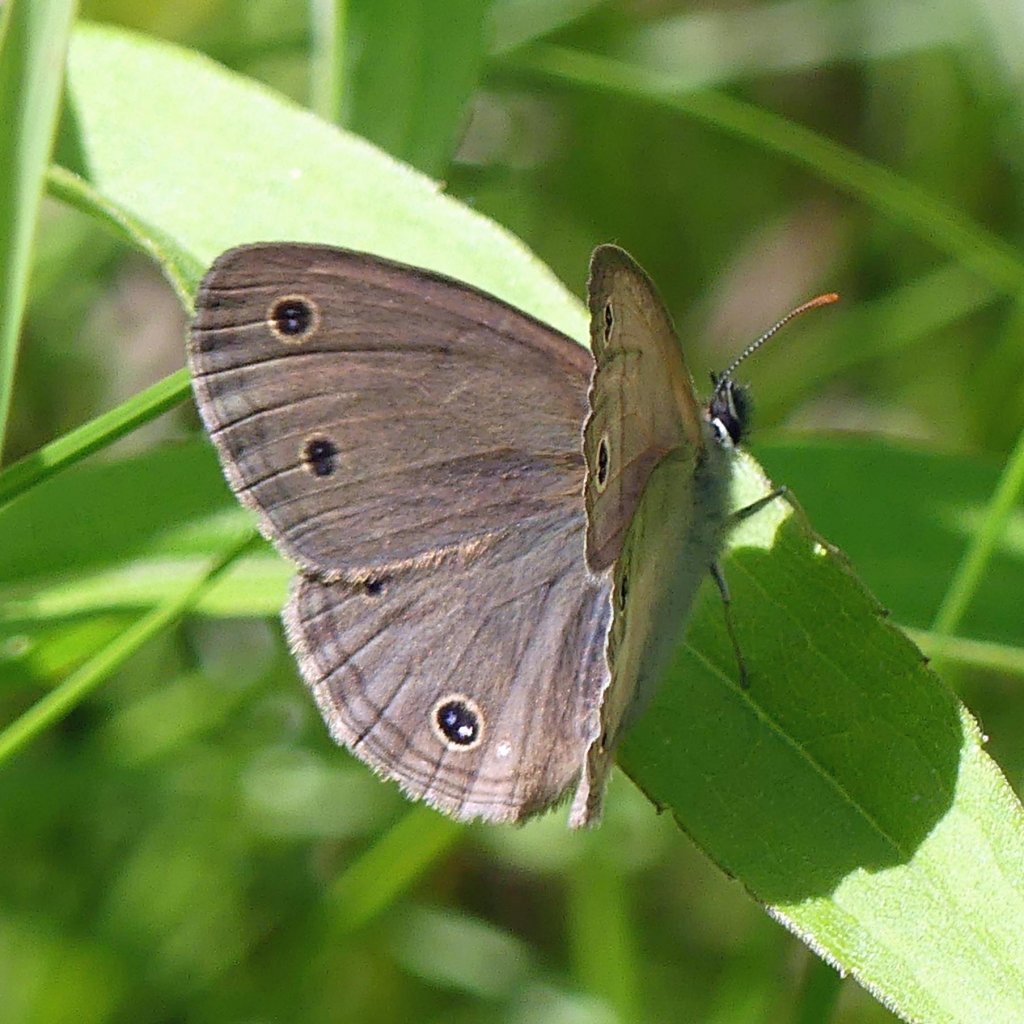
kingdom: Animalia
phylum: Arthropoda
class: Insecta
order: Lepidoptera
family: Nymphalidae
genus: Euptychia
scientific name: Euptychia cymela
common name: Little Wood Satyr
